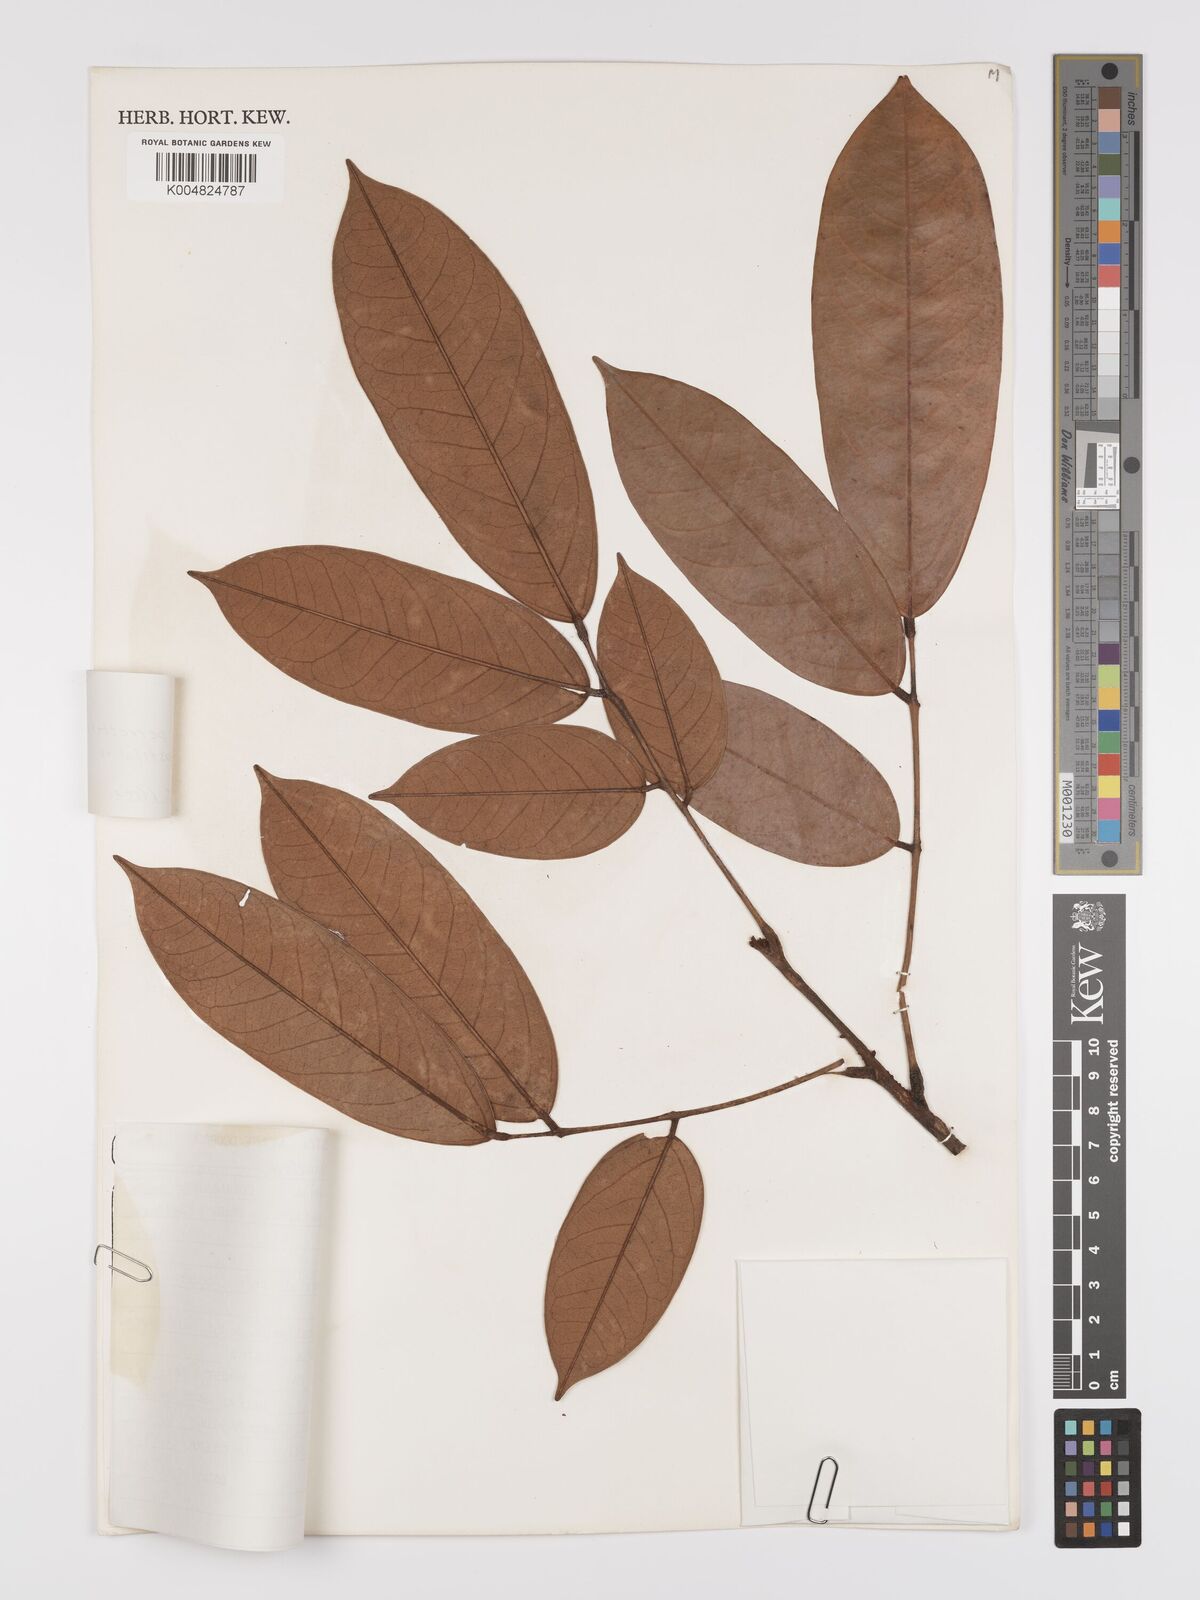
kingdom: Plantae
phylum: Tracheophyta
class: Magnoliopsida
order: Oxalidales
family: Connaraceae
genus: Connarus
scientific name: Connarus perrottetii
